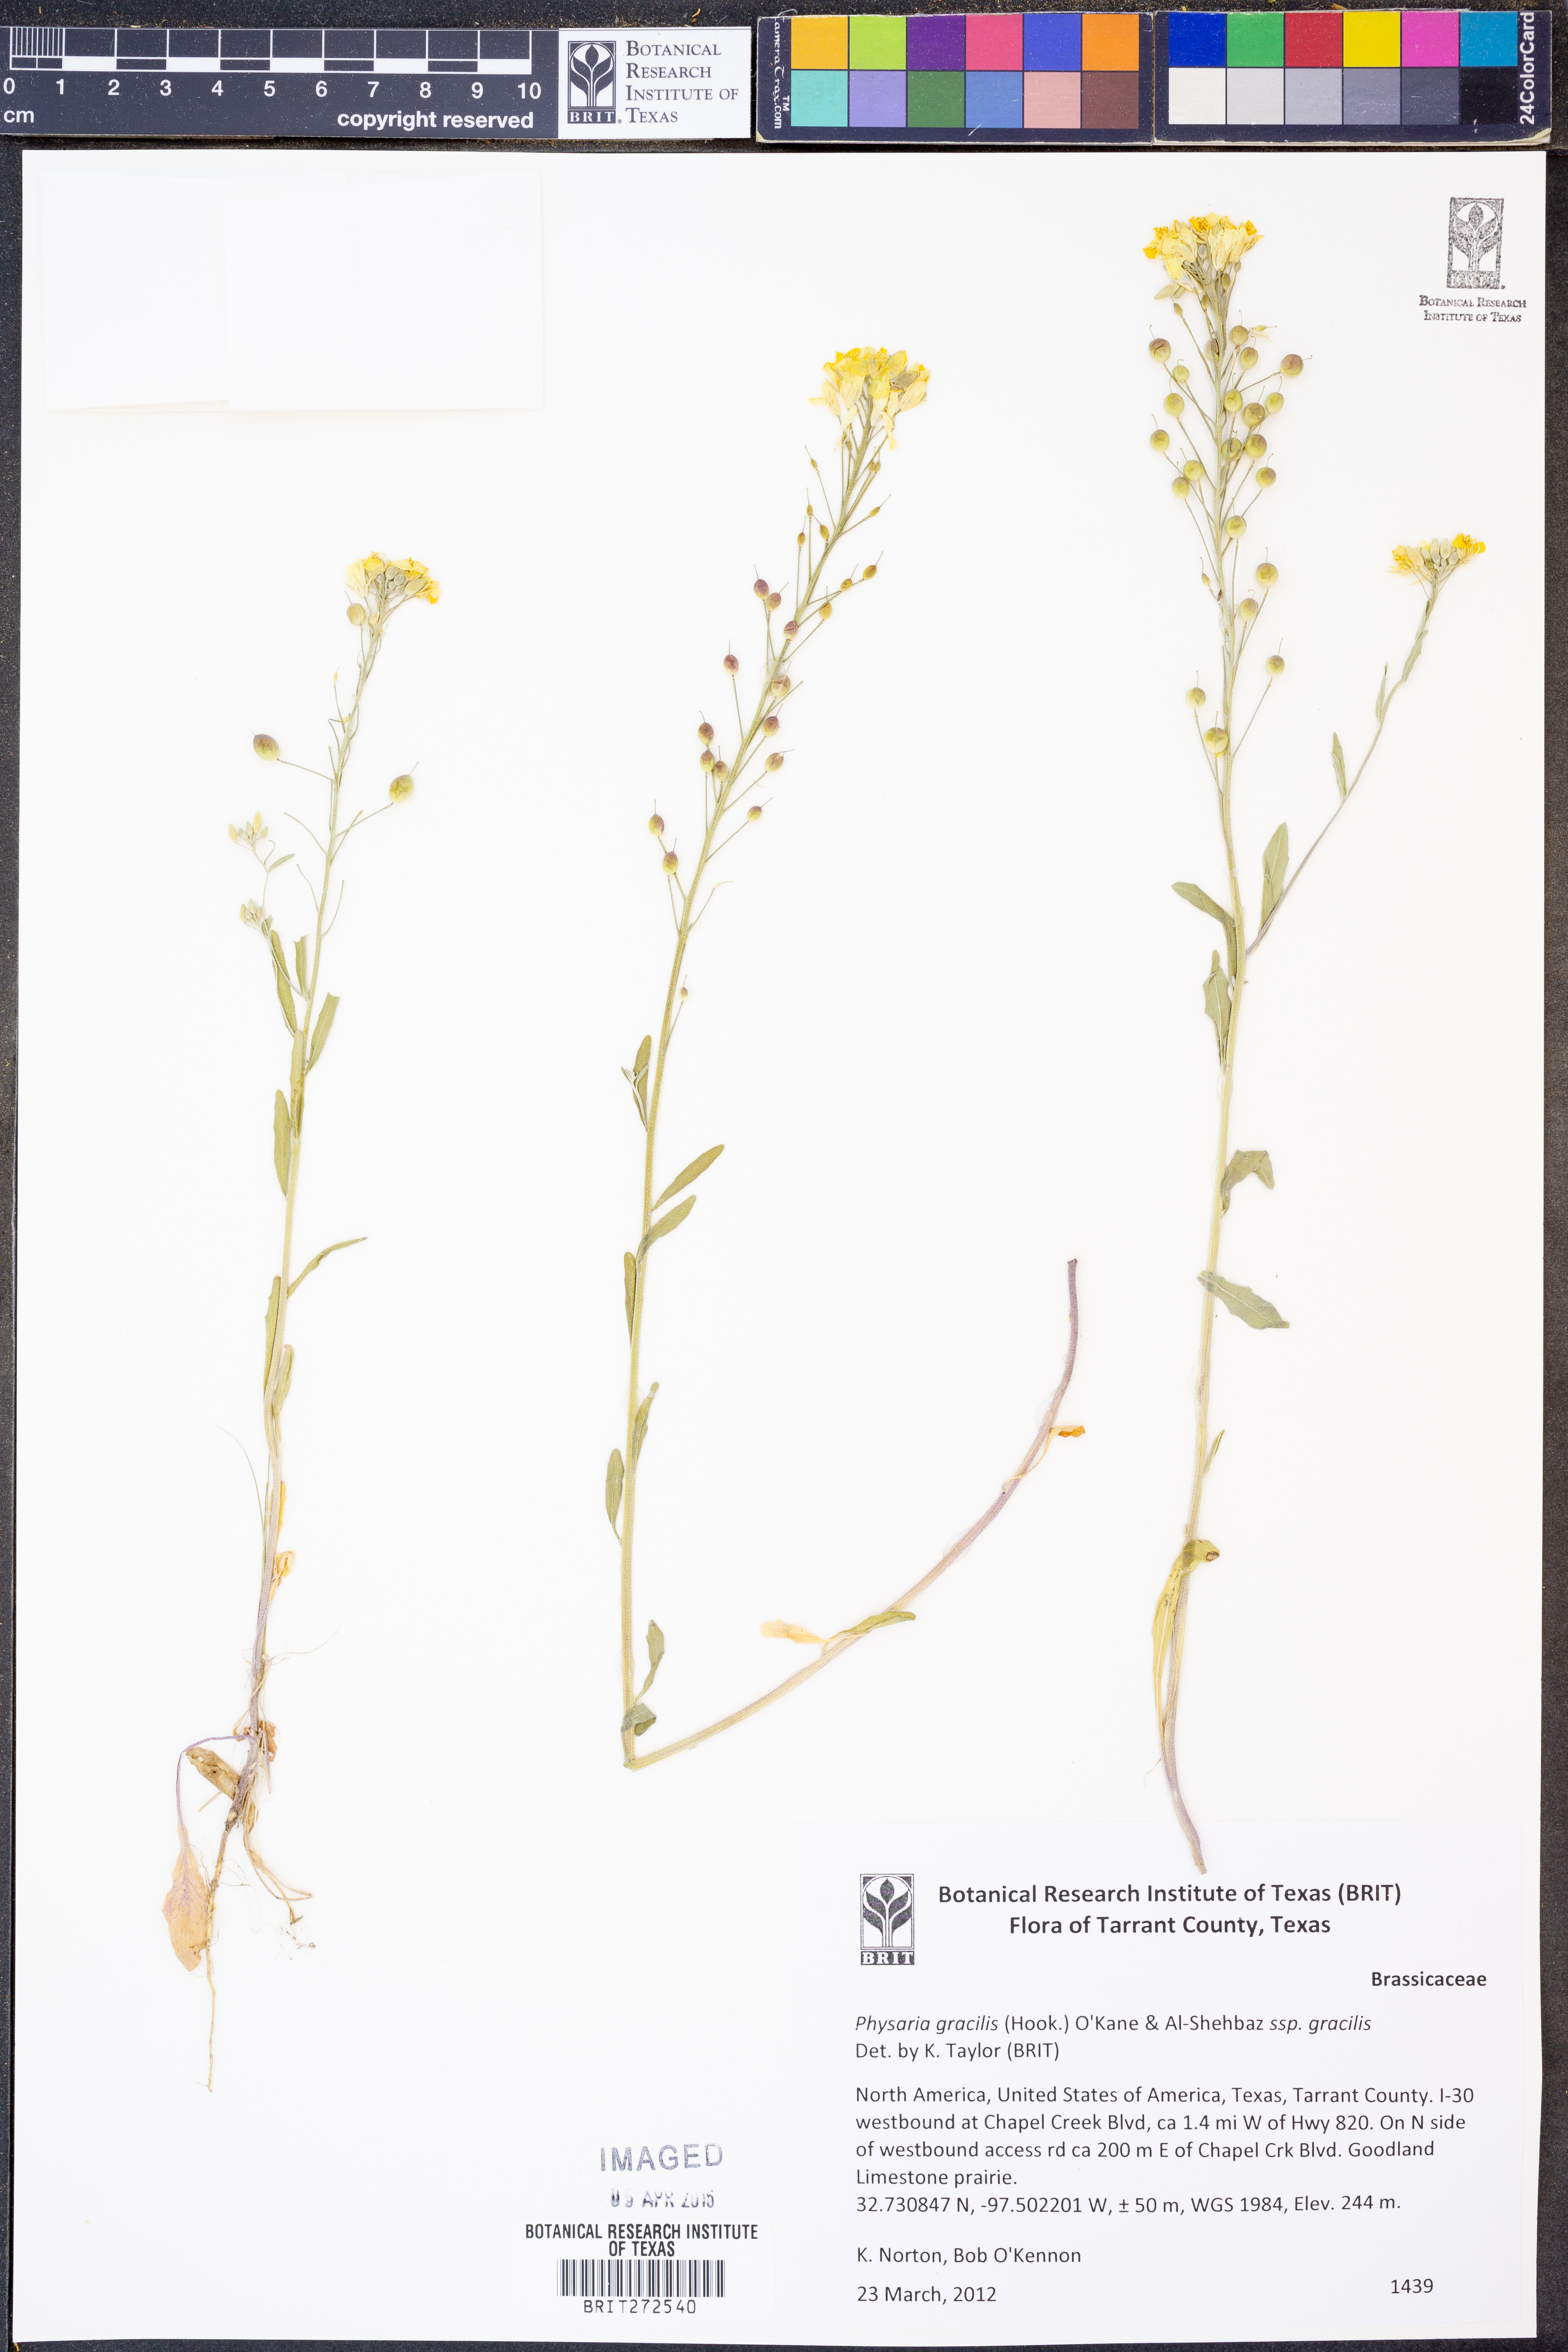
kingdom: Plantae
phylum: Tracheophyta
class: Magnoliopsida
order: Brassicales
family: Brassicaceae
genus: Physaria
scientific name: Physaria gracilis
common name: Spreading bladderpod
